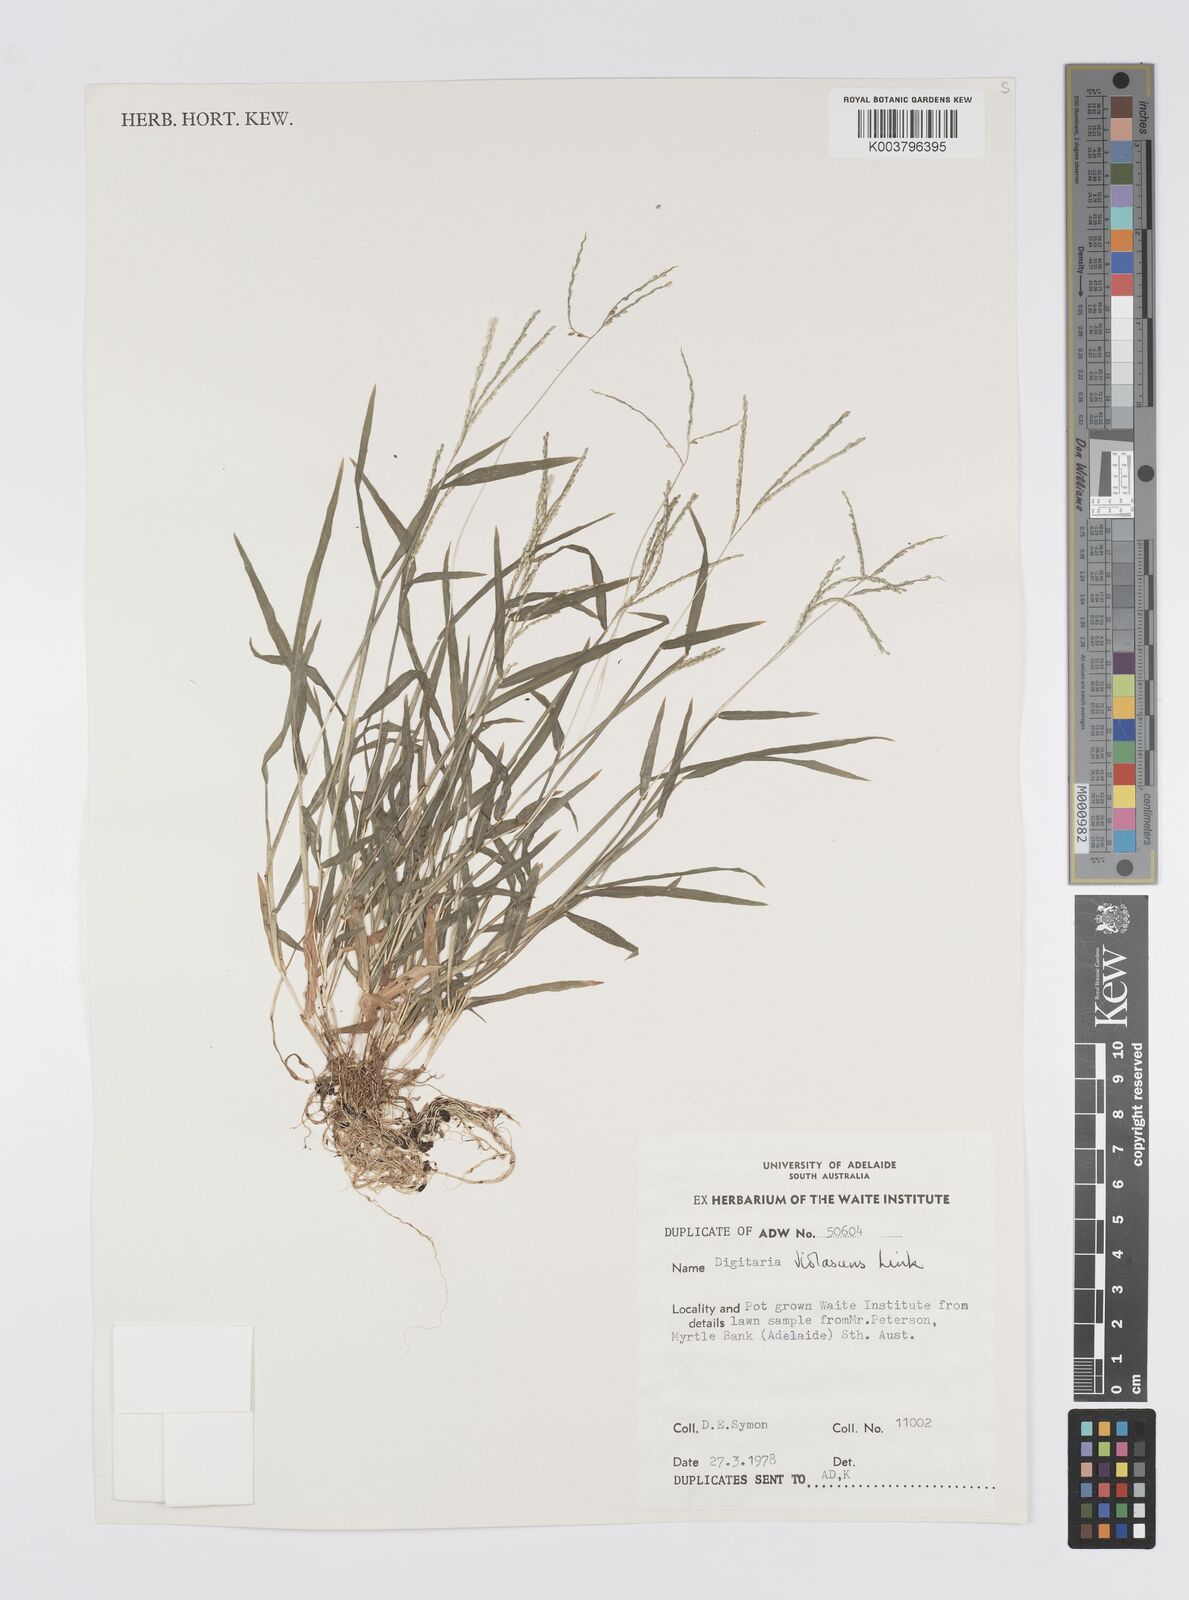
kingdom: Plantae
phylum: Tracheophyta
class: Liliopsida
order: Poales
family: Poaceae
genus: Digitaria
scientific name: Digitaria violascens
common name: Violet crabgrass
